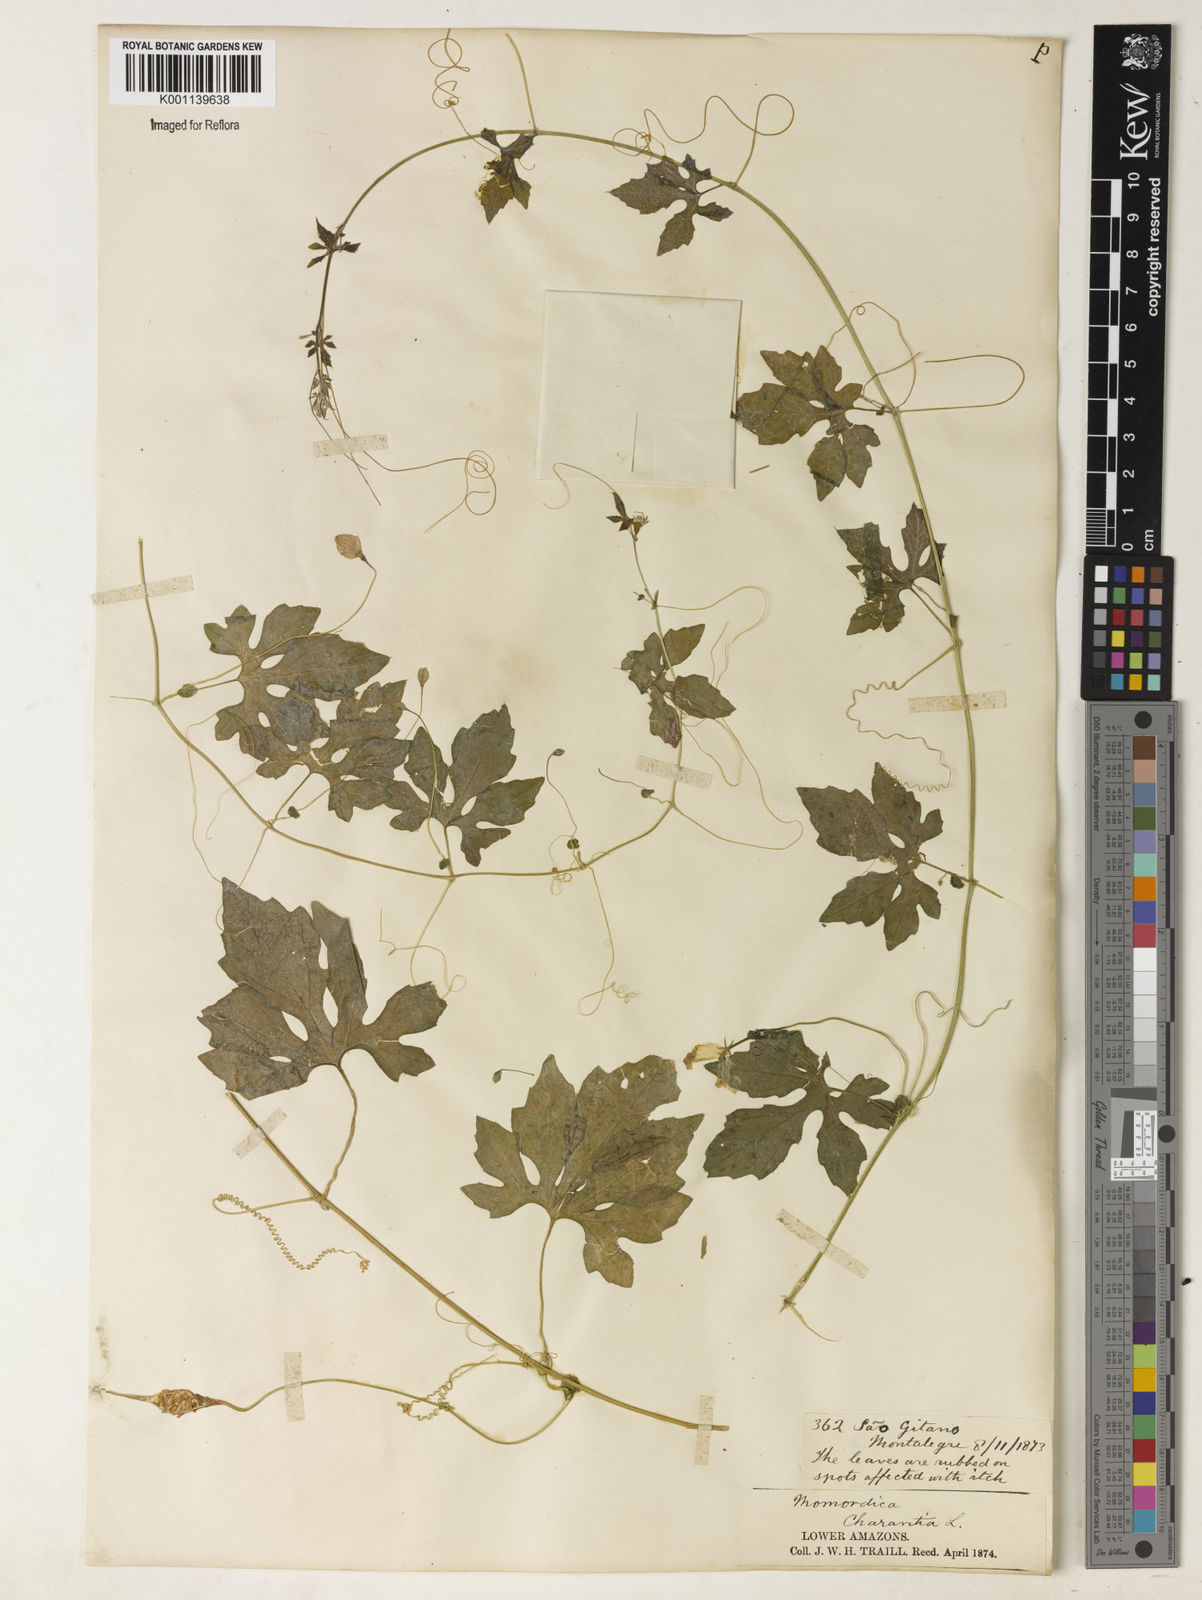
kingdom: Plantae
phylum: Tracheophyta
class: Magnoliopsida
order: Cucurbitales
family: Cucurbitaceae
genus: Momordica
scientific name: Momordica charantia
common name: Balsampear
